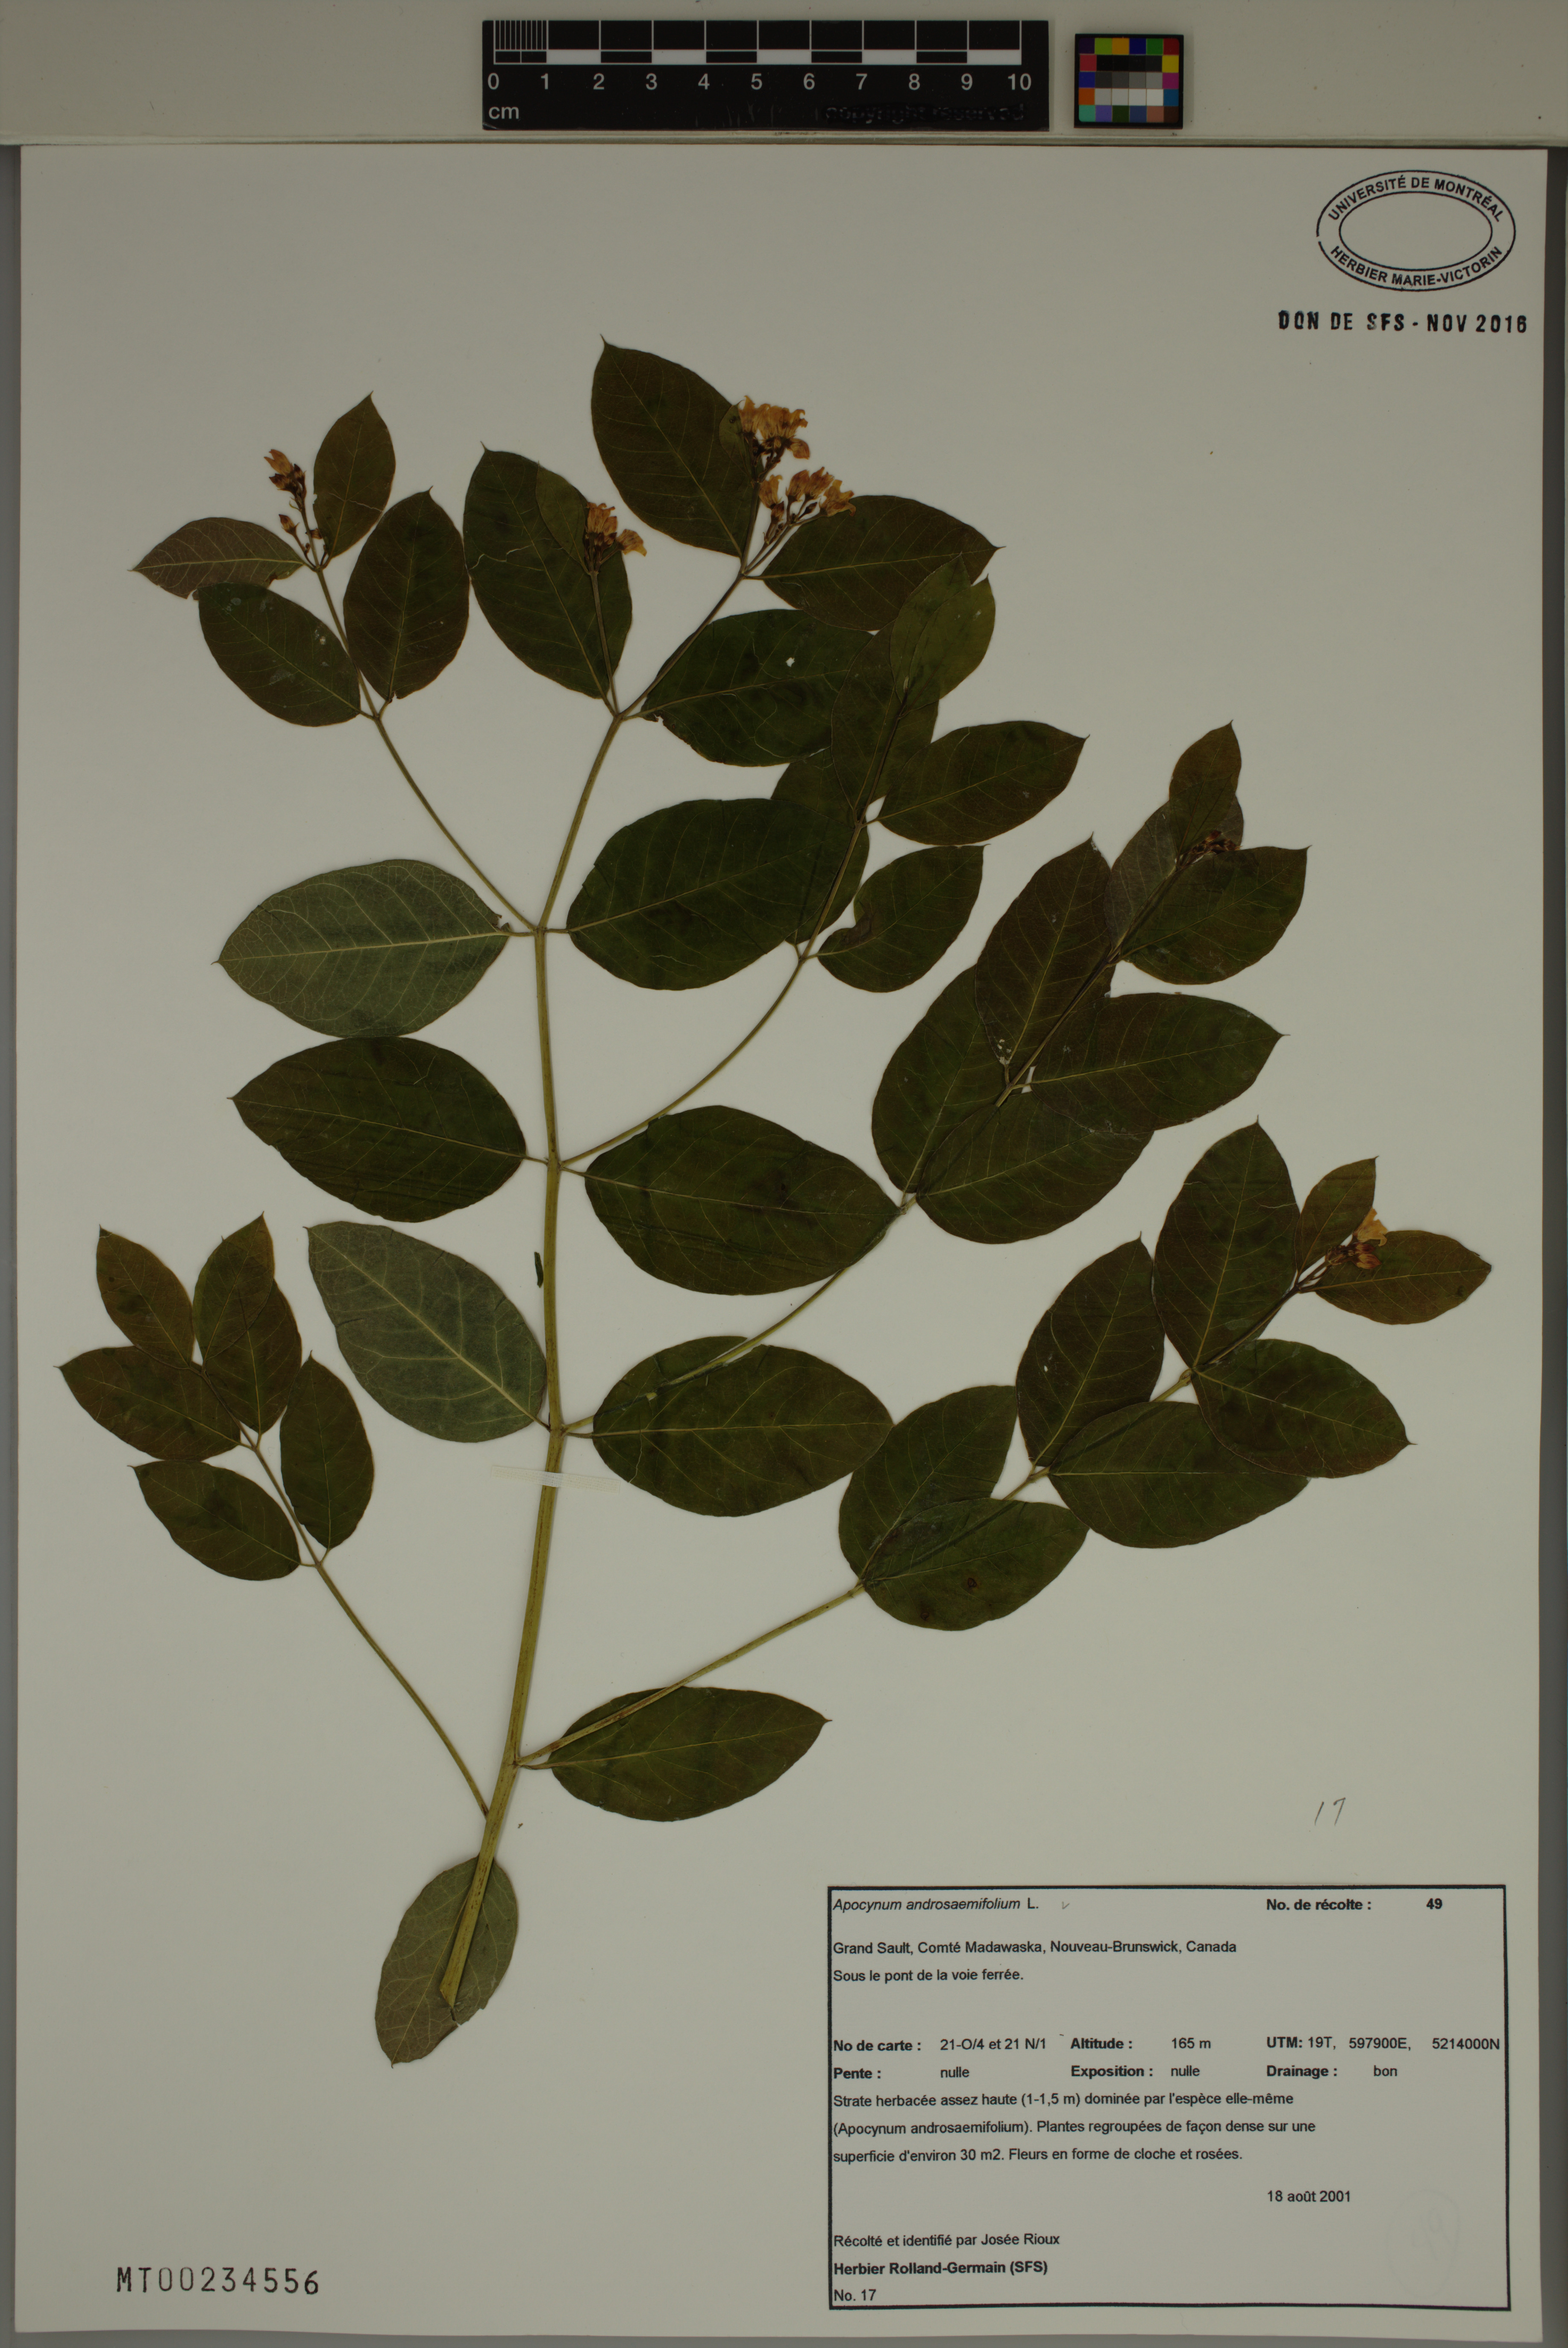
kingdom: Plantae
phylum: Tracheophyta
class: Magnoliopsida
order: Gentianales
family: Apocynaceae
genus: Apocynum
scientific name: Apocynum androsaemifolium
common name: Spreading dogbane
